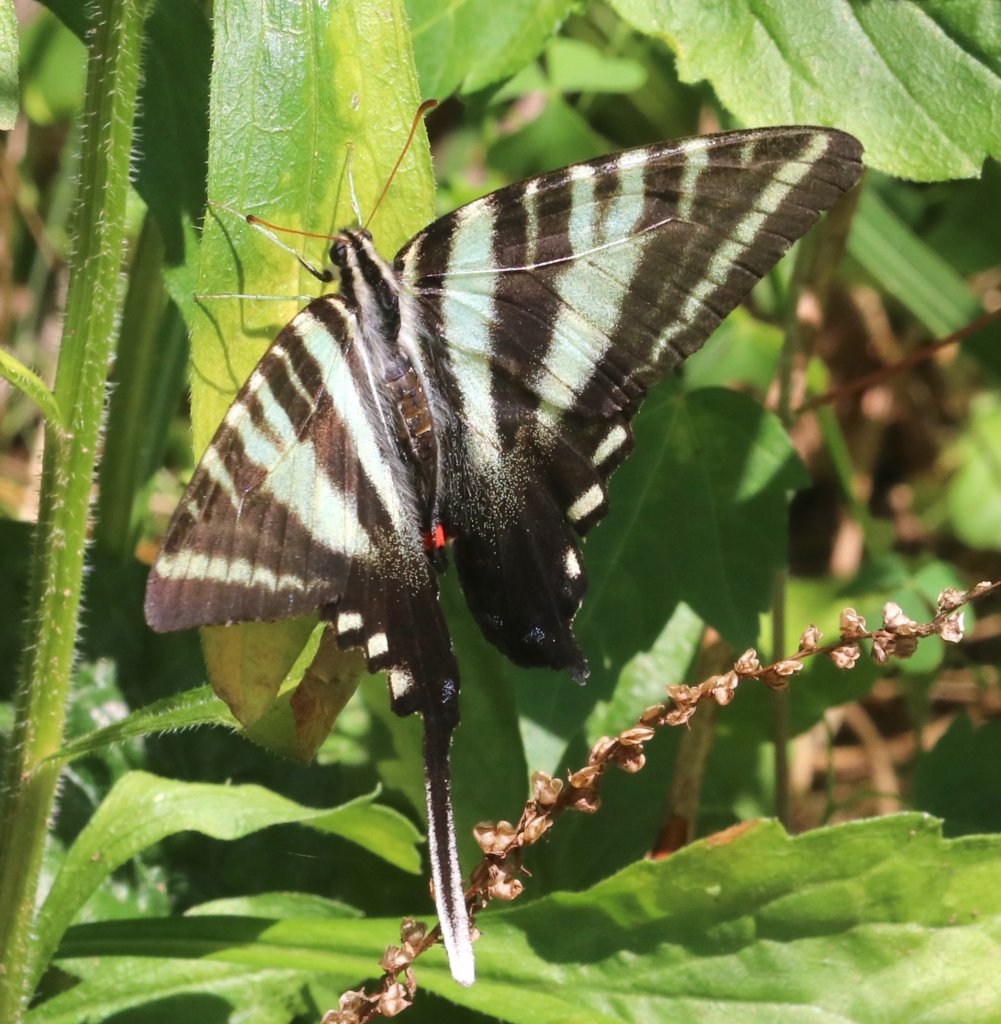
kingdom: Animalia
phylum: Arthropoda
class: Insecta
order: Lepidoptera
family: Papilionidae
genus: Protographium
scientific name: Protographium marcellus
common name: Zebra Swallowtail
